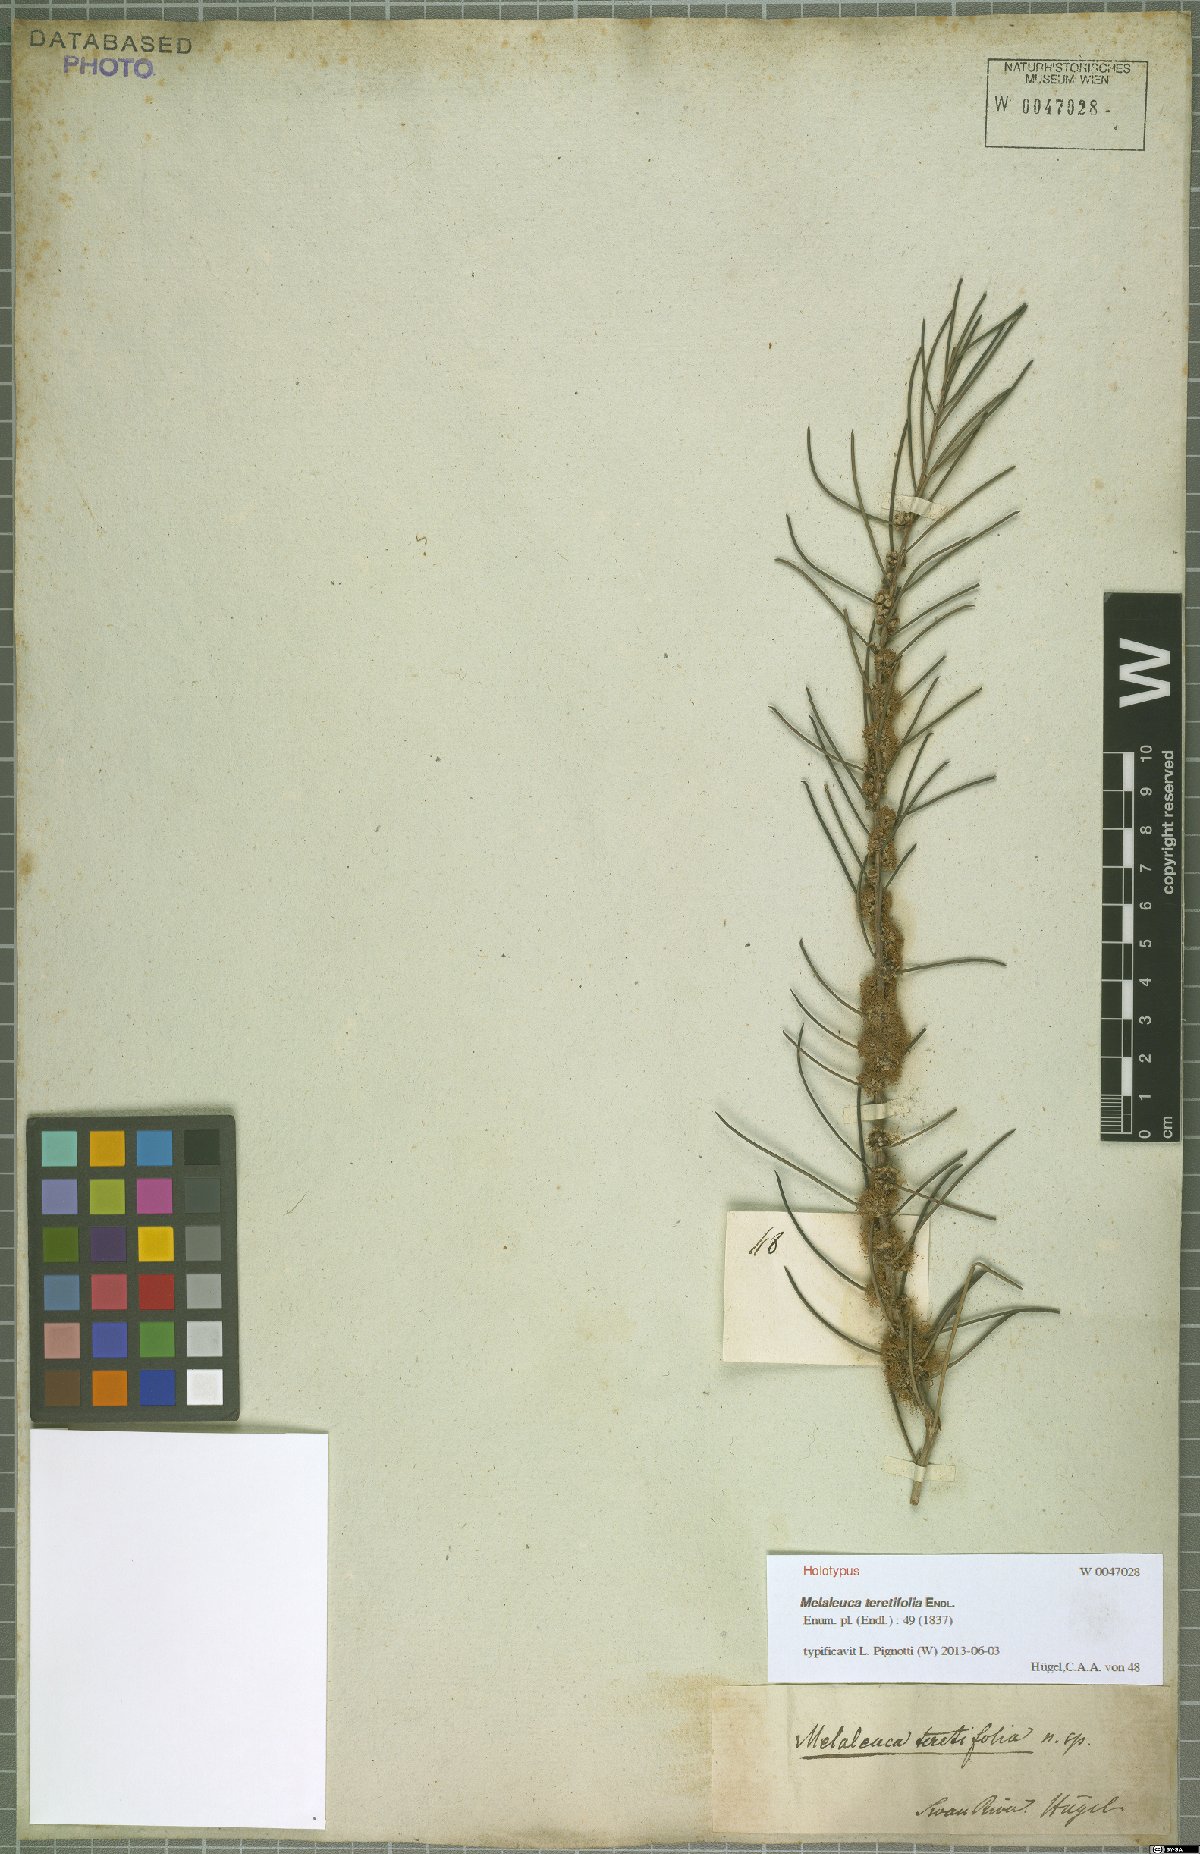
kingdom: Plantae
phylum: Tracheophyta
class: Magnoliopsida
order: Myrtales
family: Myrtaceae
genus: Melaleuca
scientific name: Melaleuca teretifolia
